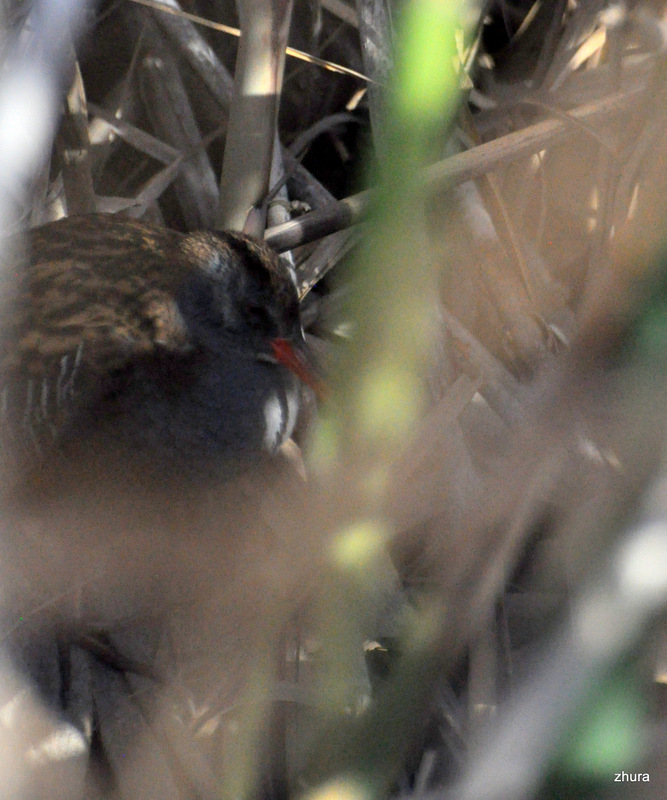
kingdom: Animalia
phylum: Chordata
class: Aves
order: Gruiformes
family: Rallidae
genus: Rallus
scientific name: Rallus aquaticus
